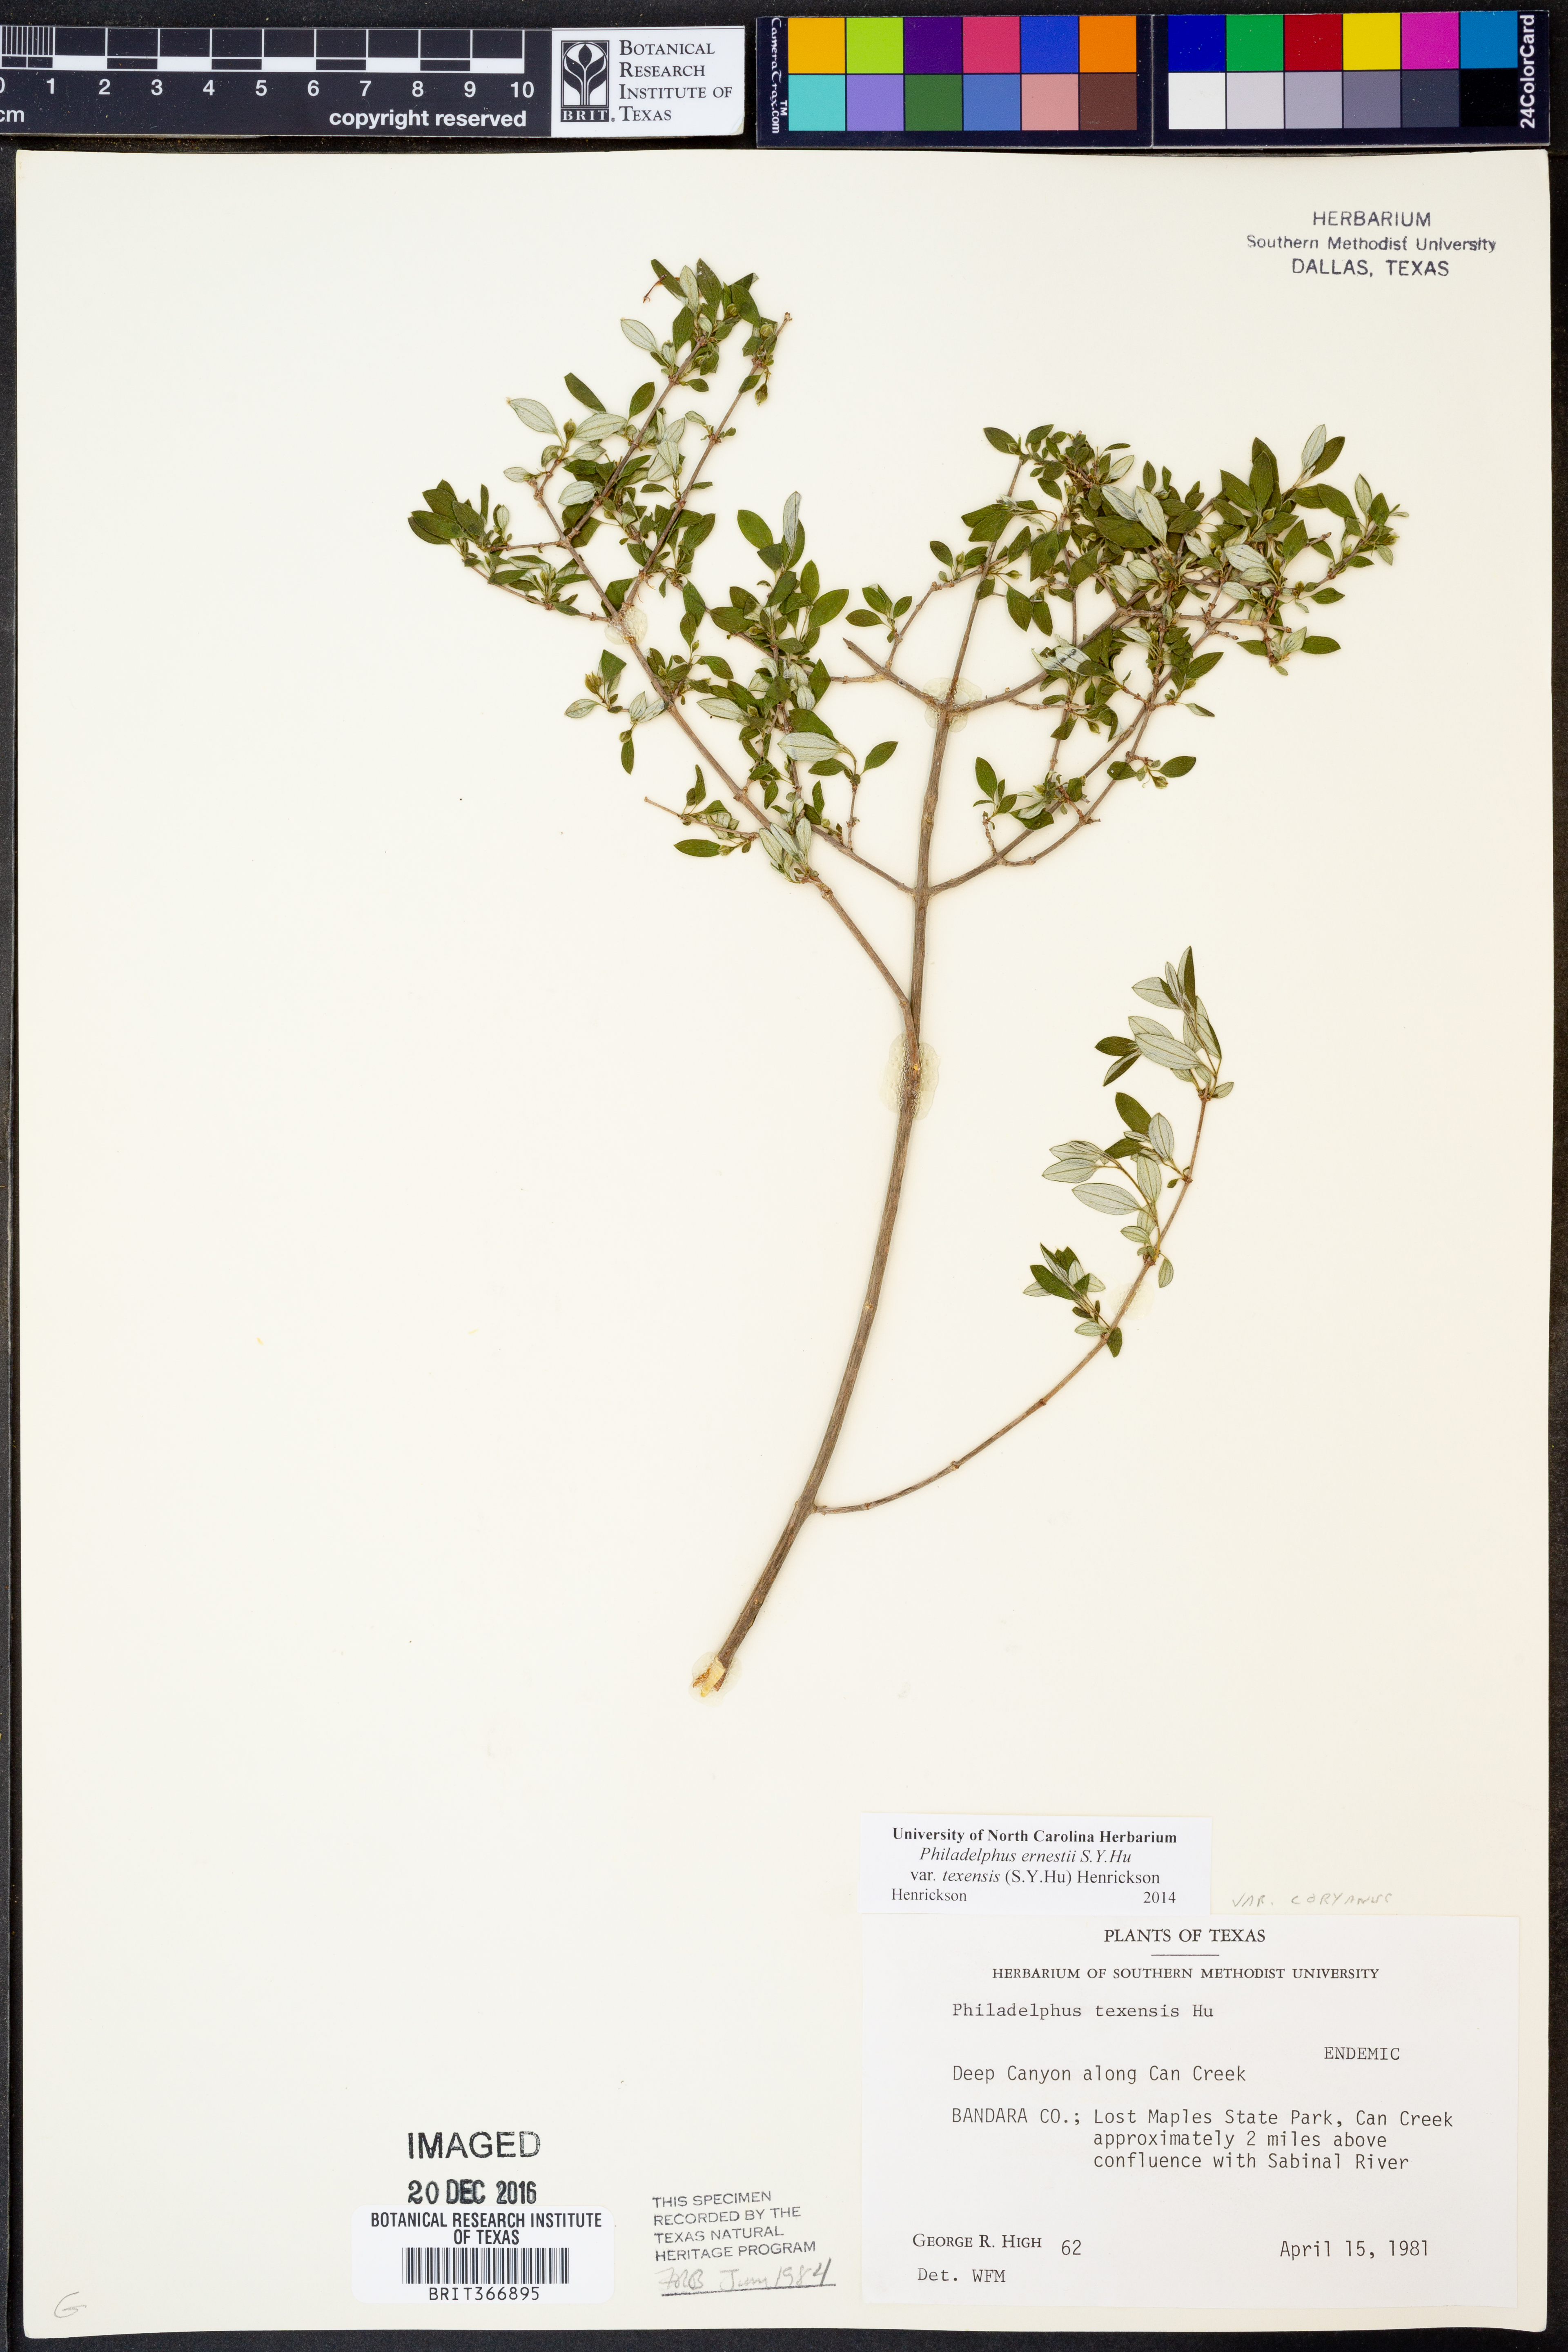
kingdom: Plantae
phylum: Tracheophyta
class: Magnoliopsida
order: Cornales
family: Hydrangeaceae
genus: Philadelphus
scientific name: Philadelphus texensis
